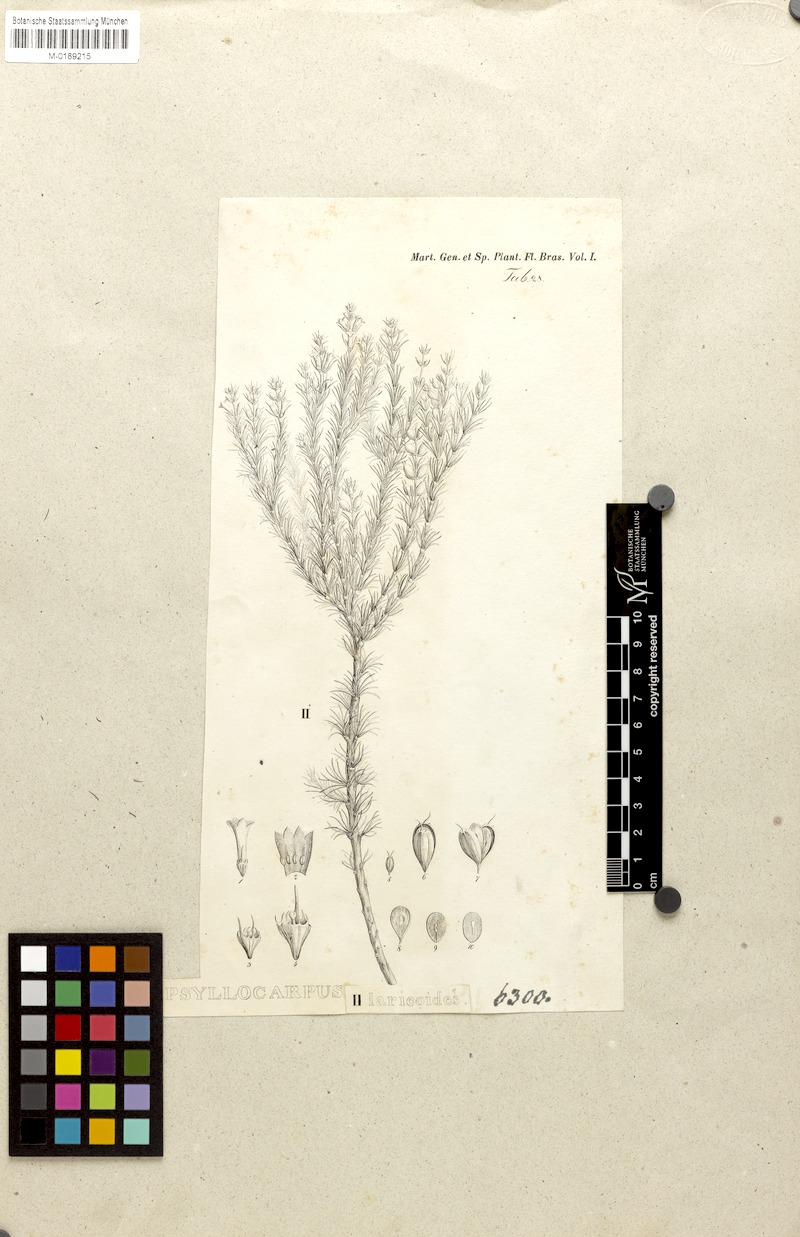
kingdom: Plantae
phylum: Tracheophyta
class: Magnoliopsida
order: Gentianales
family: Rubiaceae
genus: Psyllocarpus
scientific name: Psyllocarpus laricoides
